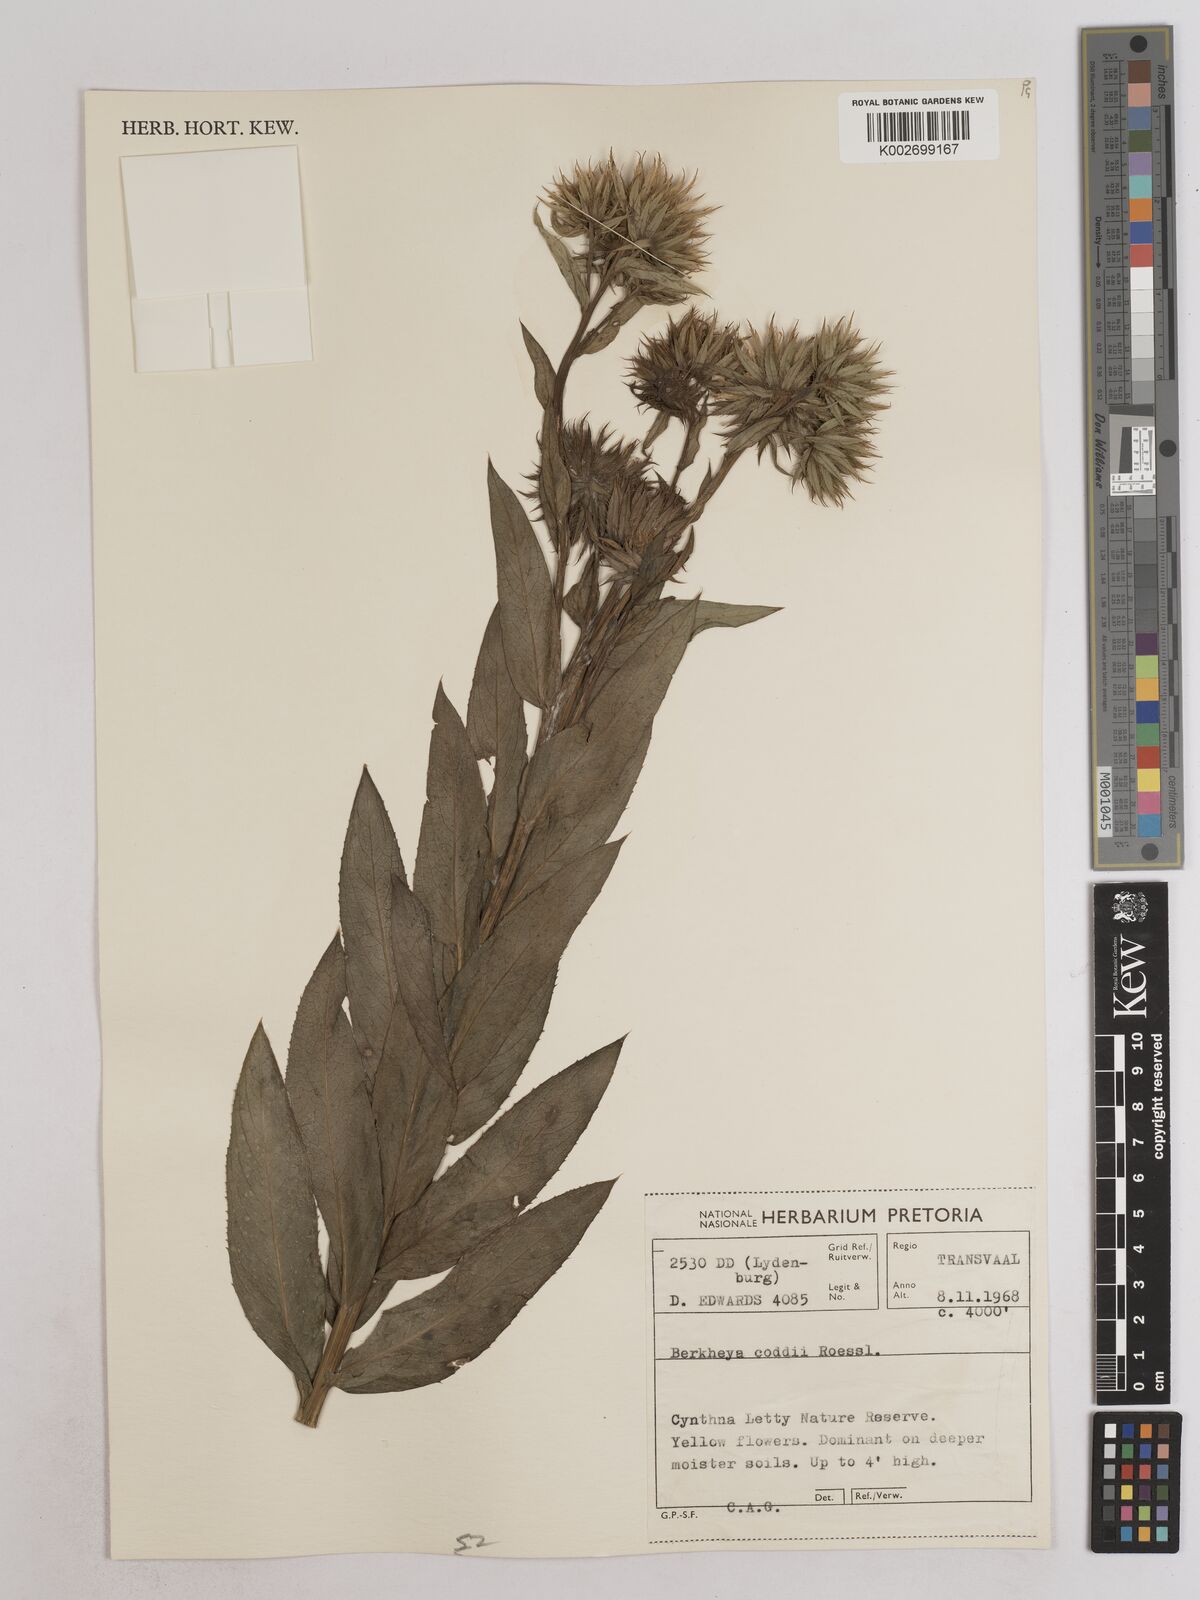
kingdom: Plantae
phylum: Tracheophyta
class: Magnoliopsida
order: Asterales
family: Asteraceae
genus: Berkheya
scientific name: Berkheya coddii
